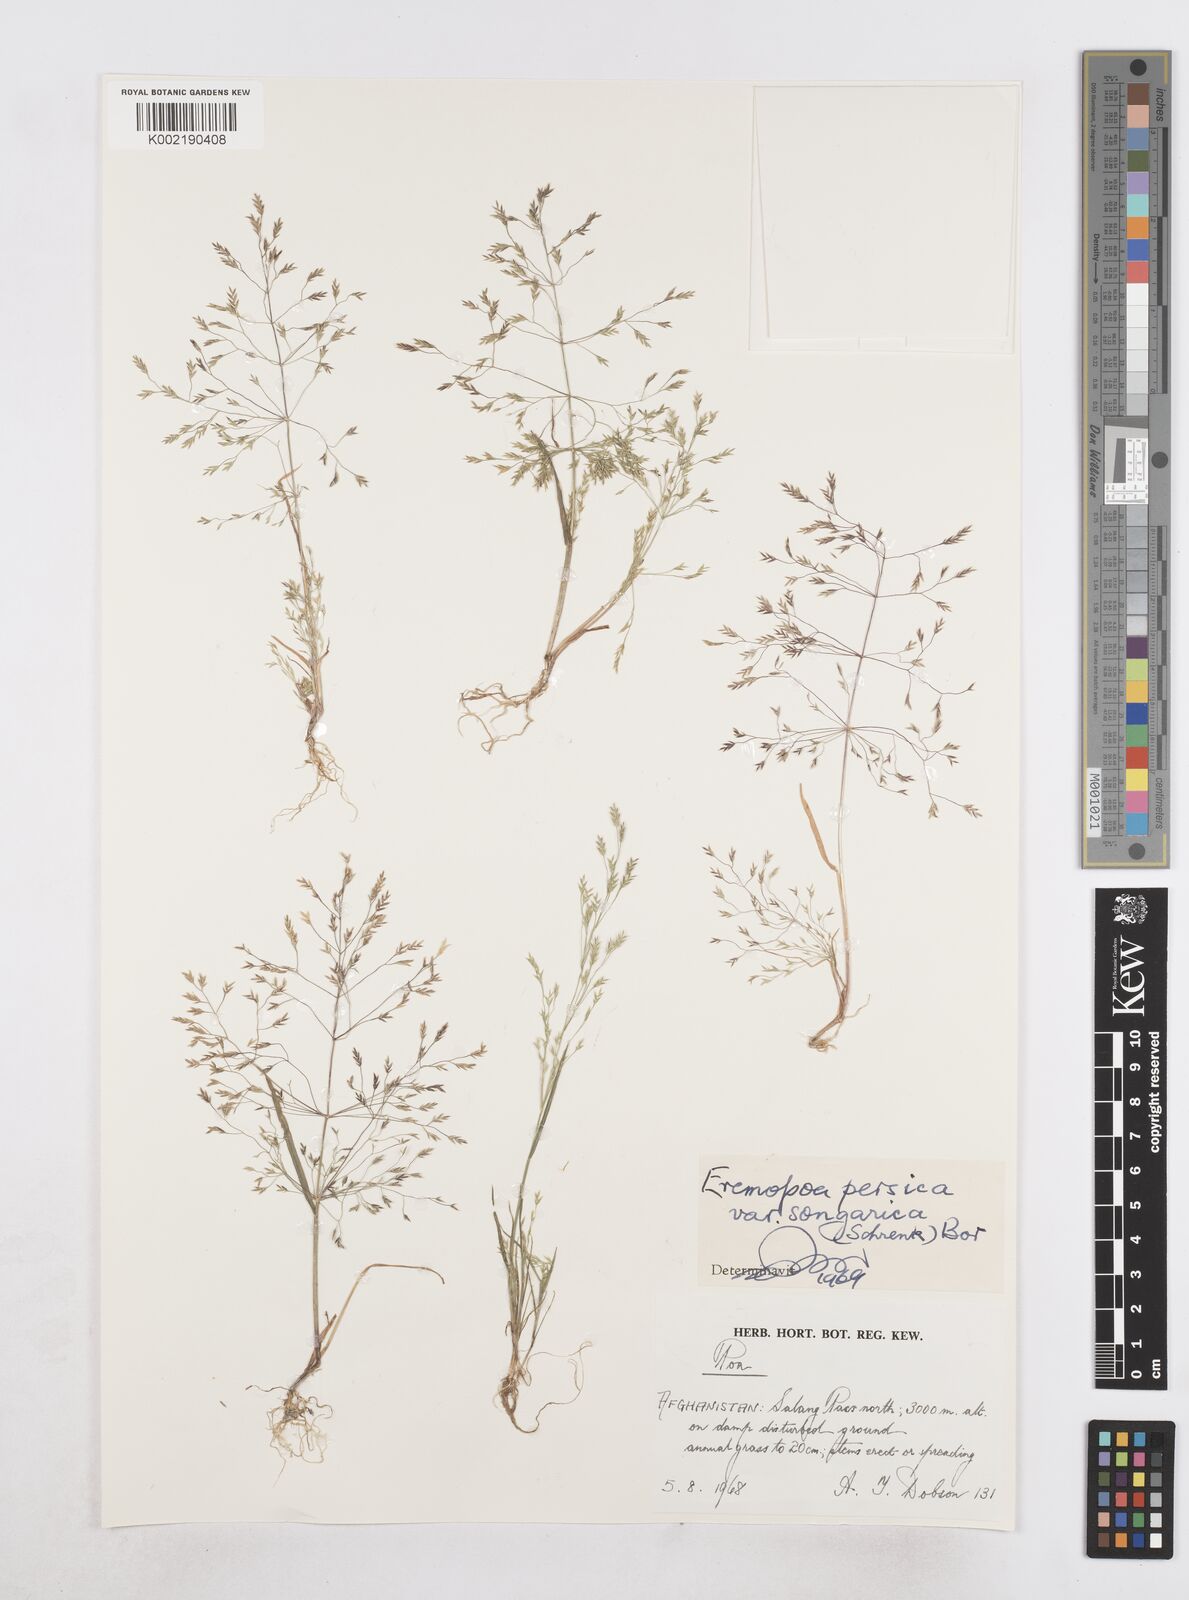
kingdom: Plantae
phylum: Tracheophyta
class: Liliopsida
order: Poales
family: Poaceae
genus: Poa
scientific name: Poa diaphora
